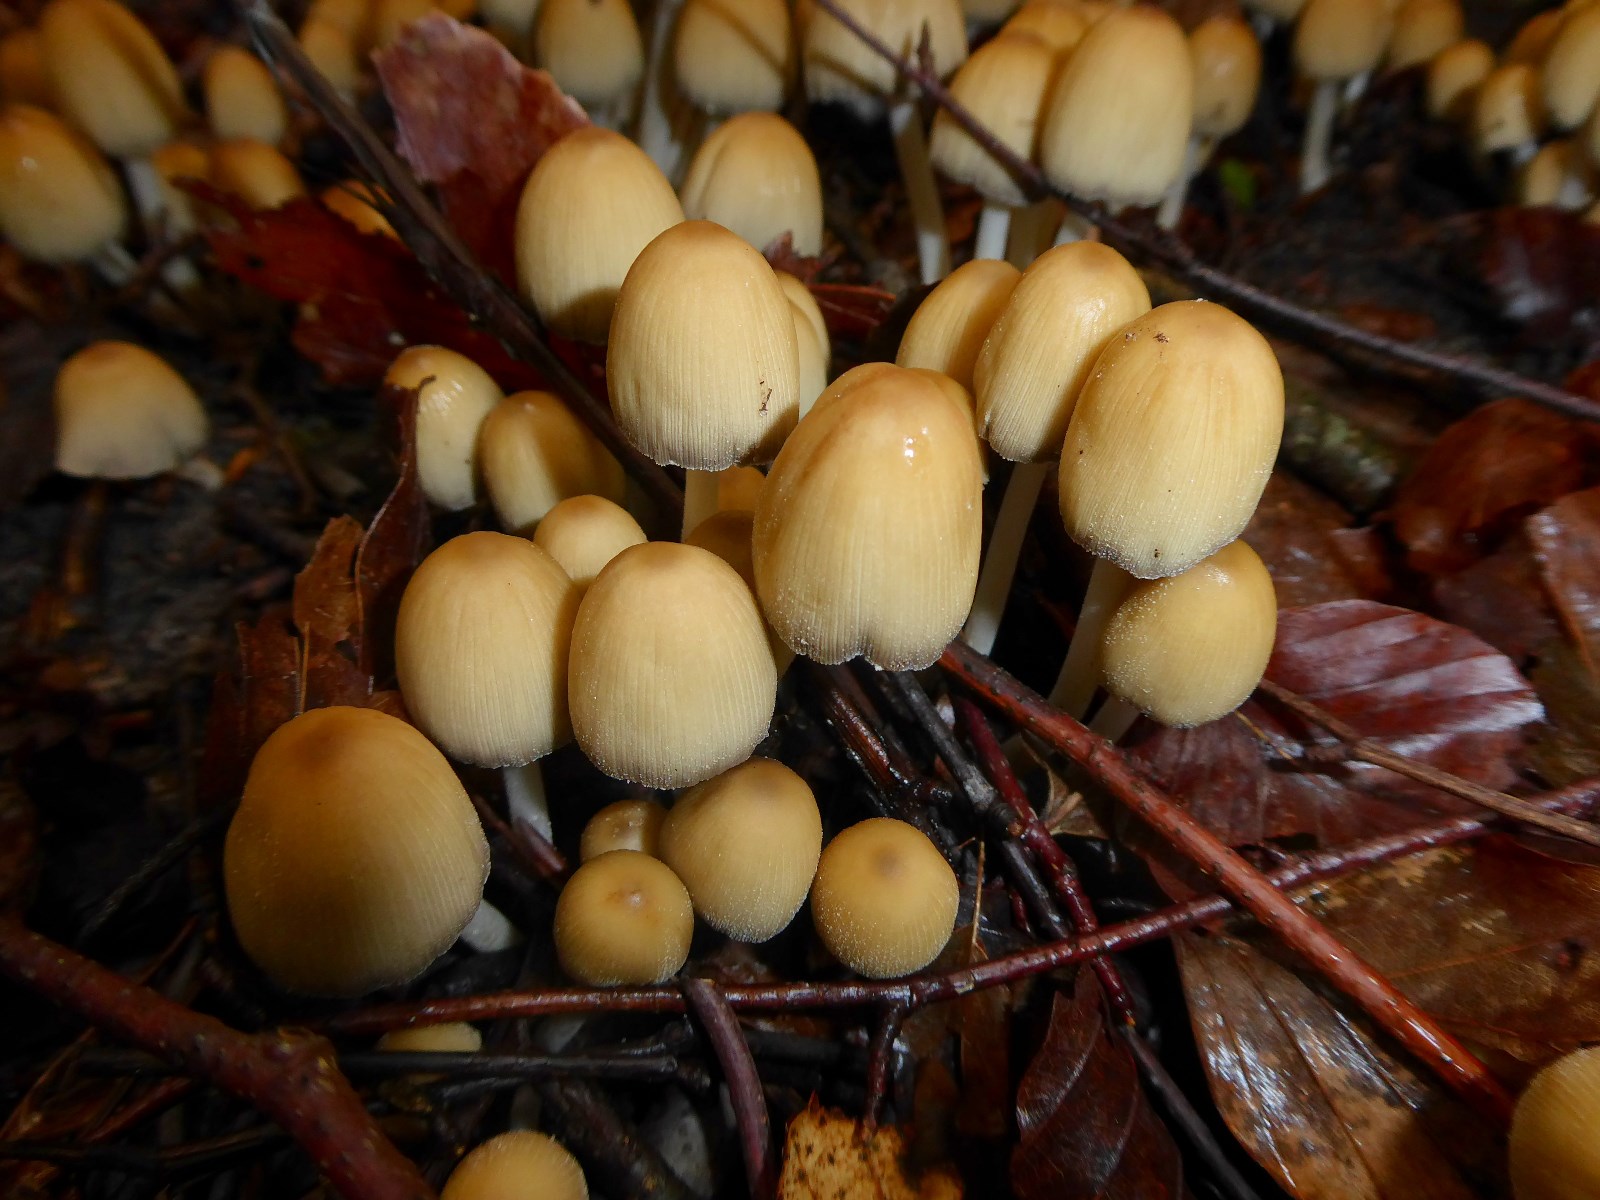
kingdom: Fungi
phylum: Basidiomycota
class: Agaricomycetes
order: Agaricales
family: Psathyrellaceae
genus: Coprinellus
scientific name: Coprinellus micaceus
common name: glimmer-blækhat
